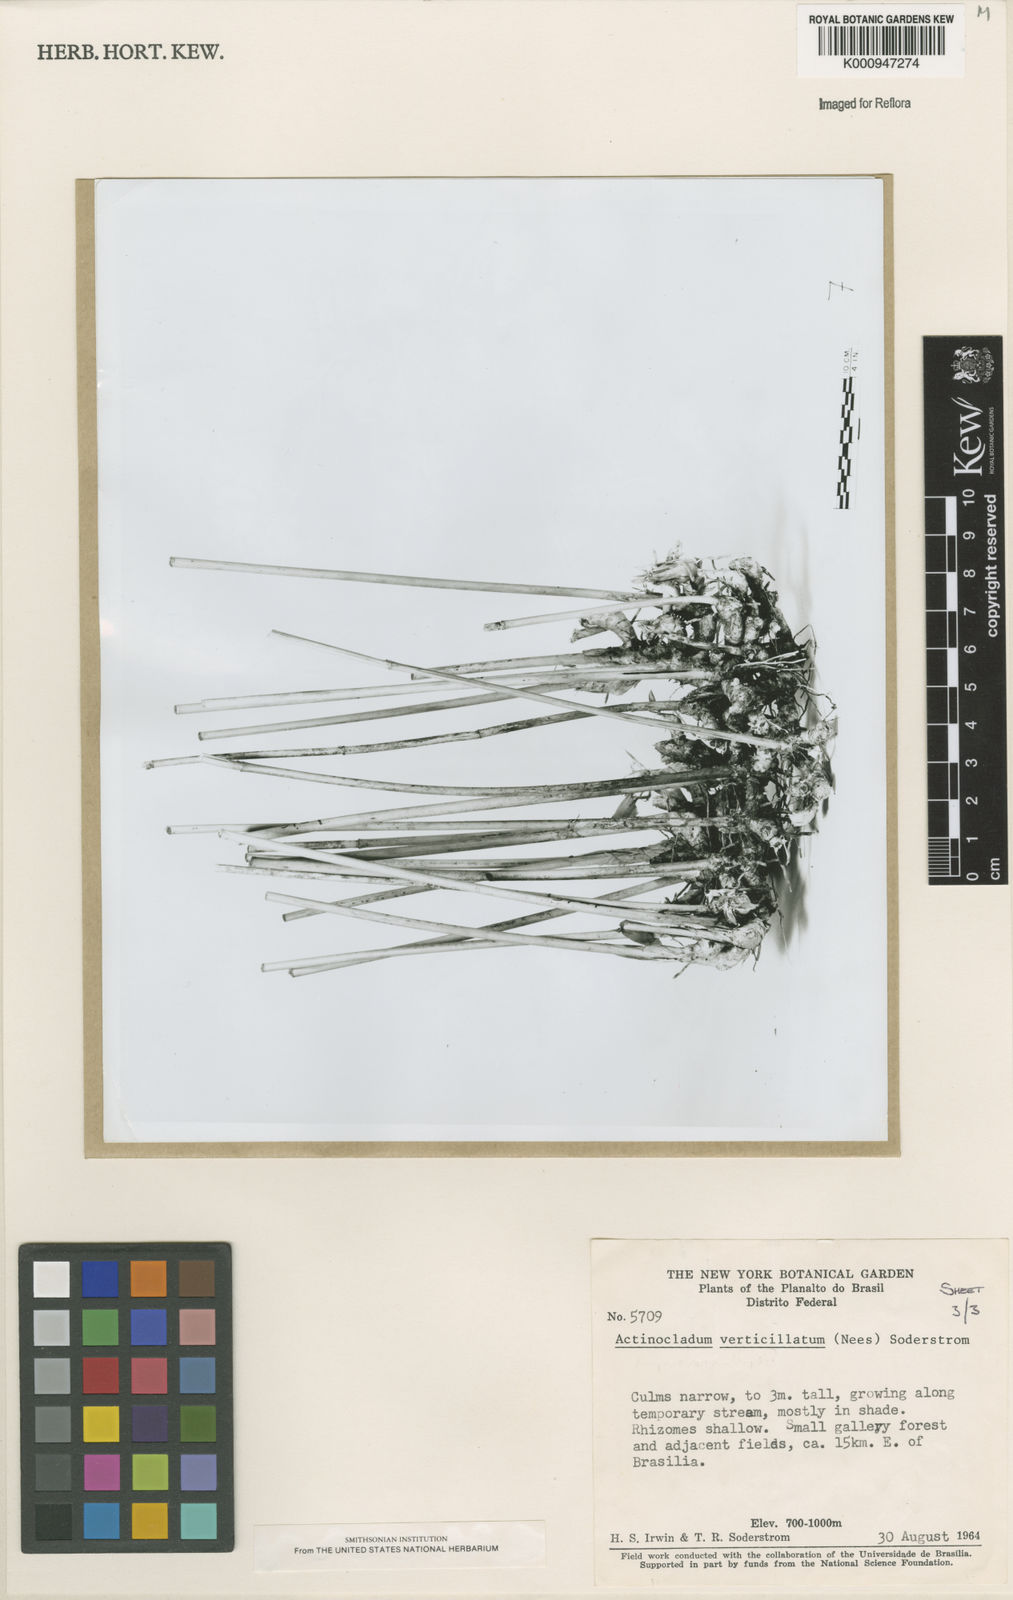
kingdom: Plantae
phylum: Tracheophyta
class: Liliopsida
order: Poales
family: Poaceae
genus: Actinocladum
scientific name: Actinocladum verticillatum
